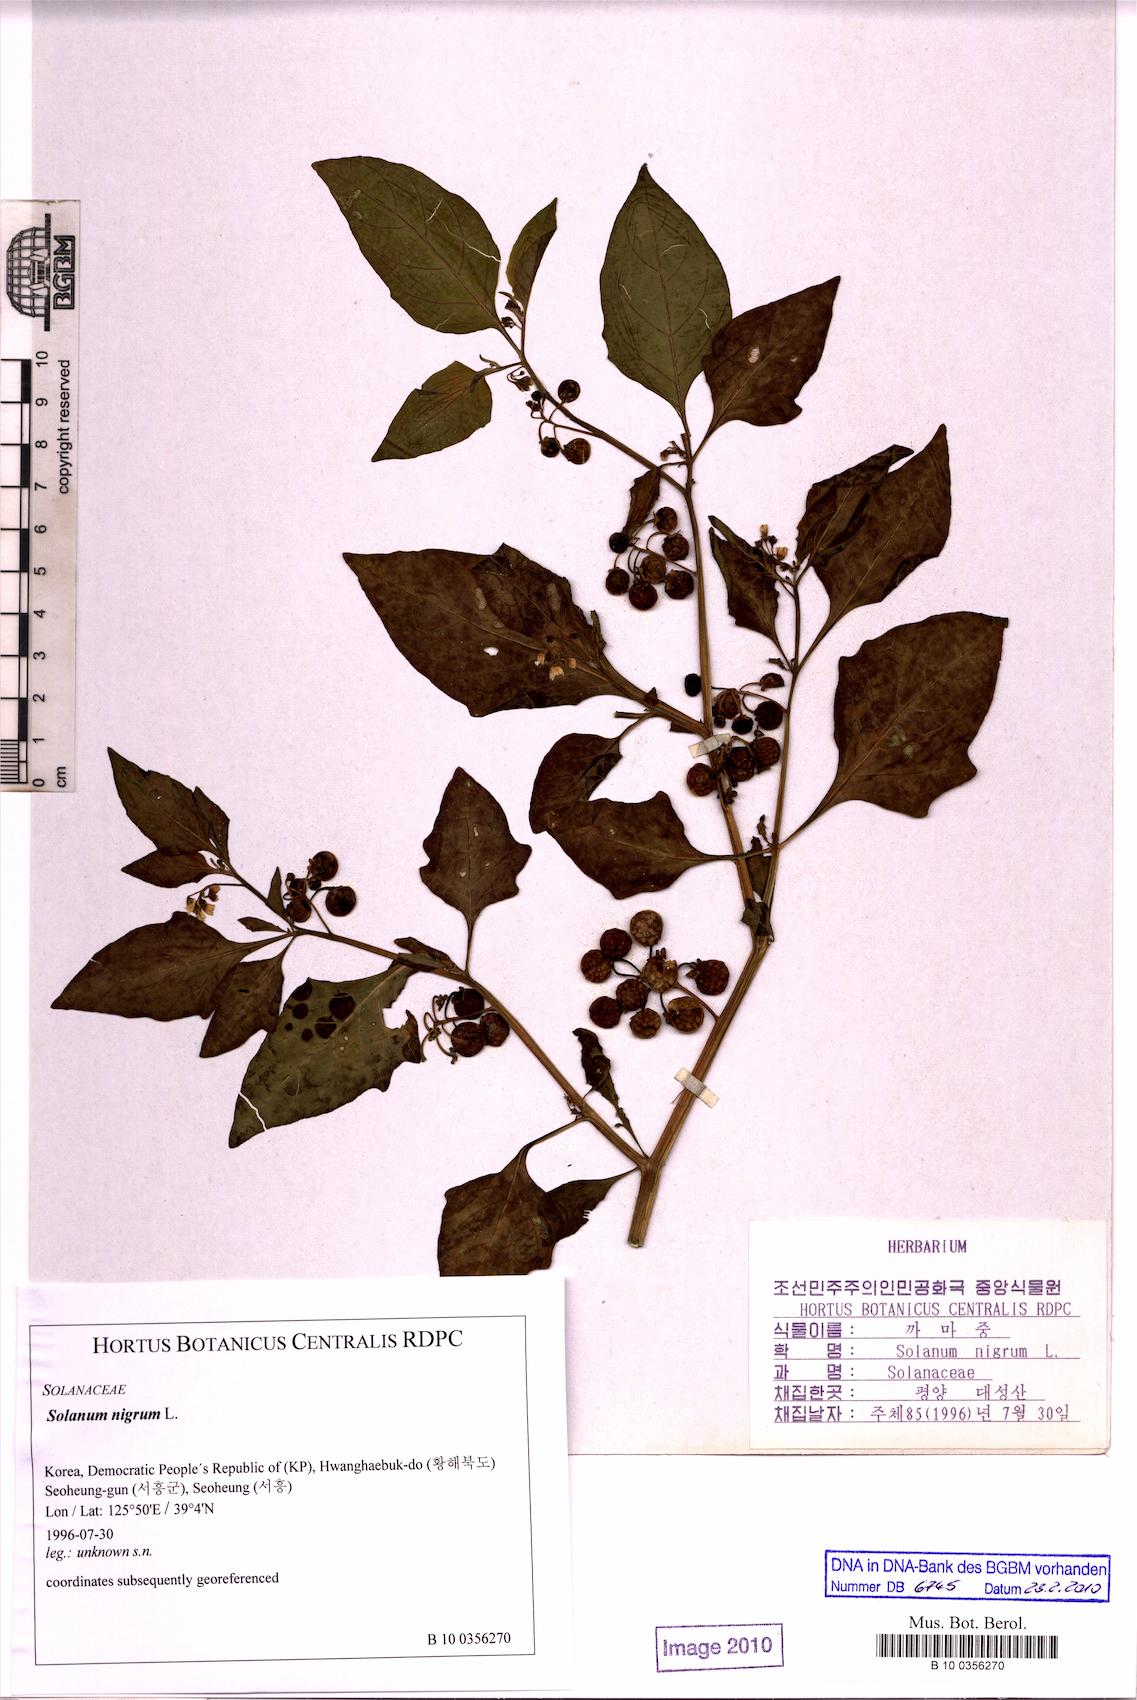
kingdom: Plantae
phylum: Tracheophyta
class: Magnoliopsida
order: Solanales
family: Solanaceae
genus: Solanum
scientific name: Solanum nigrum
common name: Black nightshade
